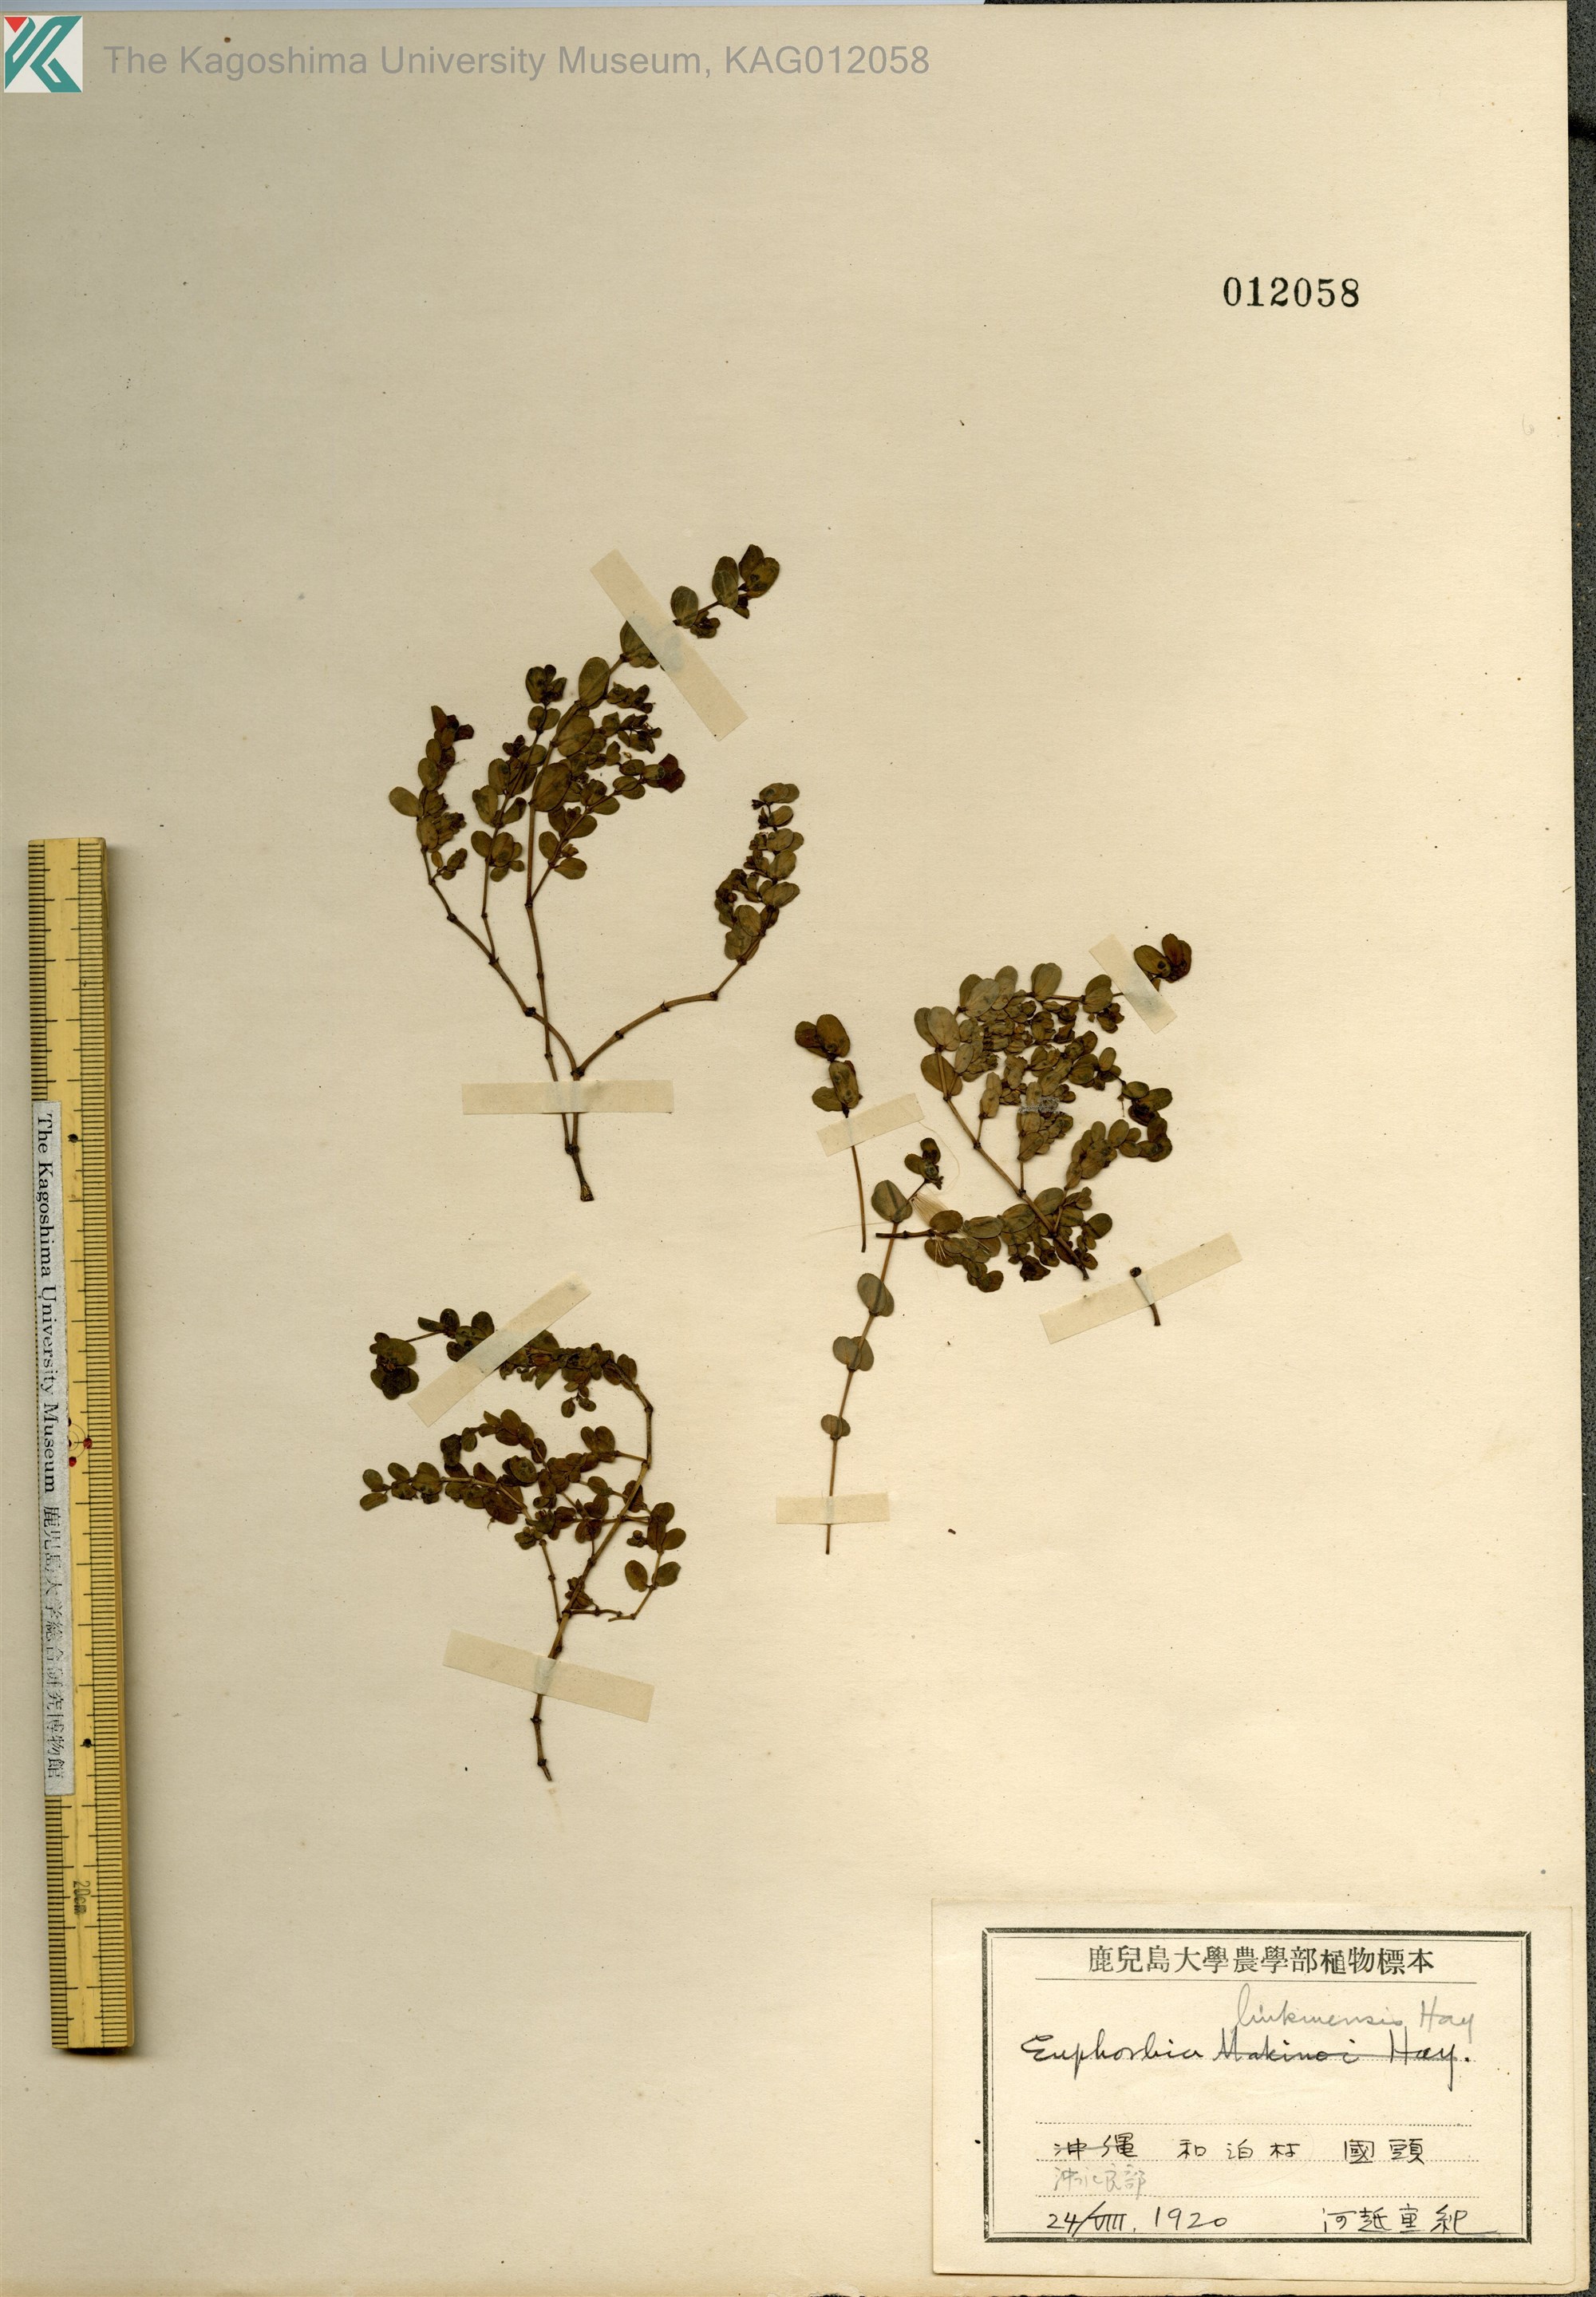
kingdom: Plantae
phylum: Tracheophyta
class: Magnoliopsida
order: Malpighiales
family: Euphorbiaceae
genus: Euphorbia
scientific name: Euphorbia liukiuensis
